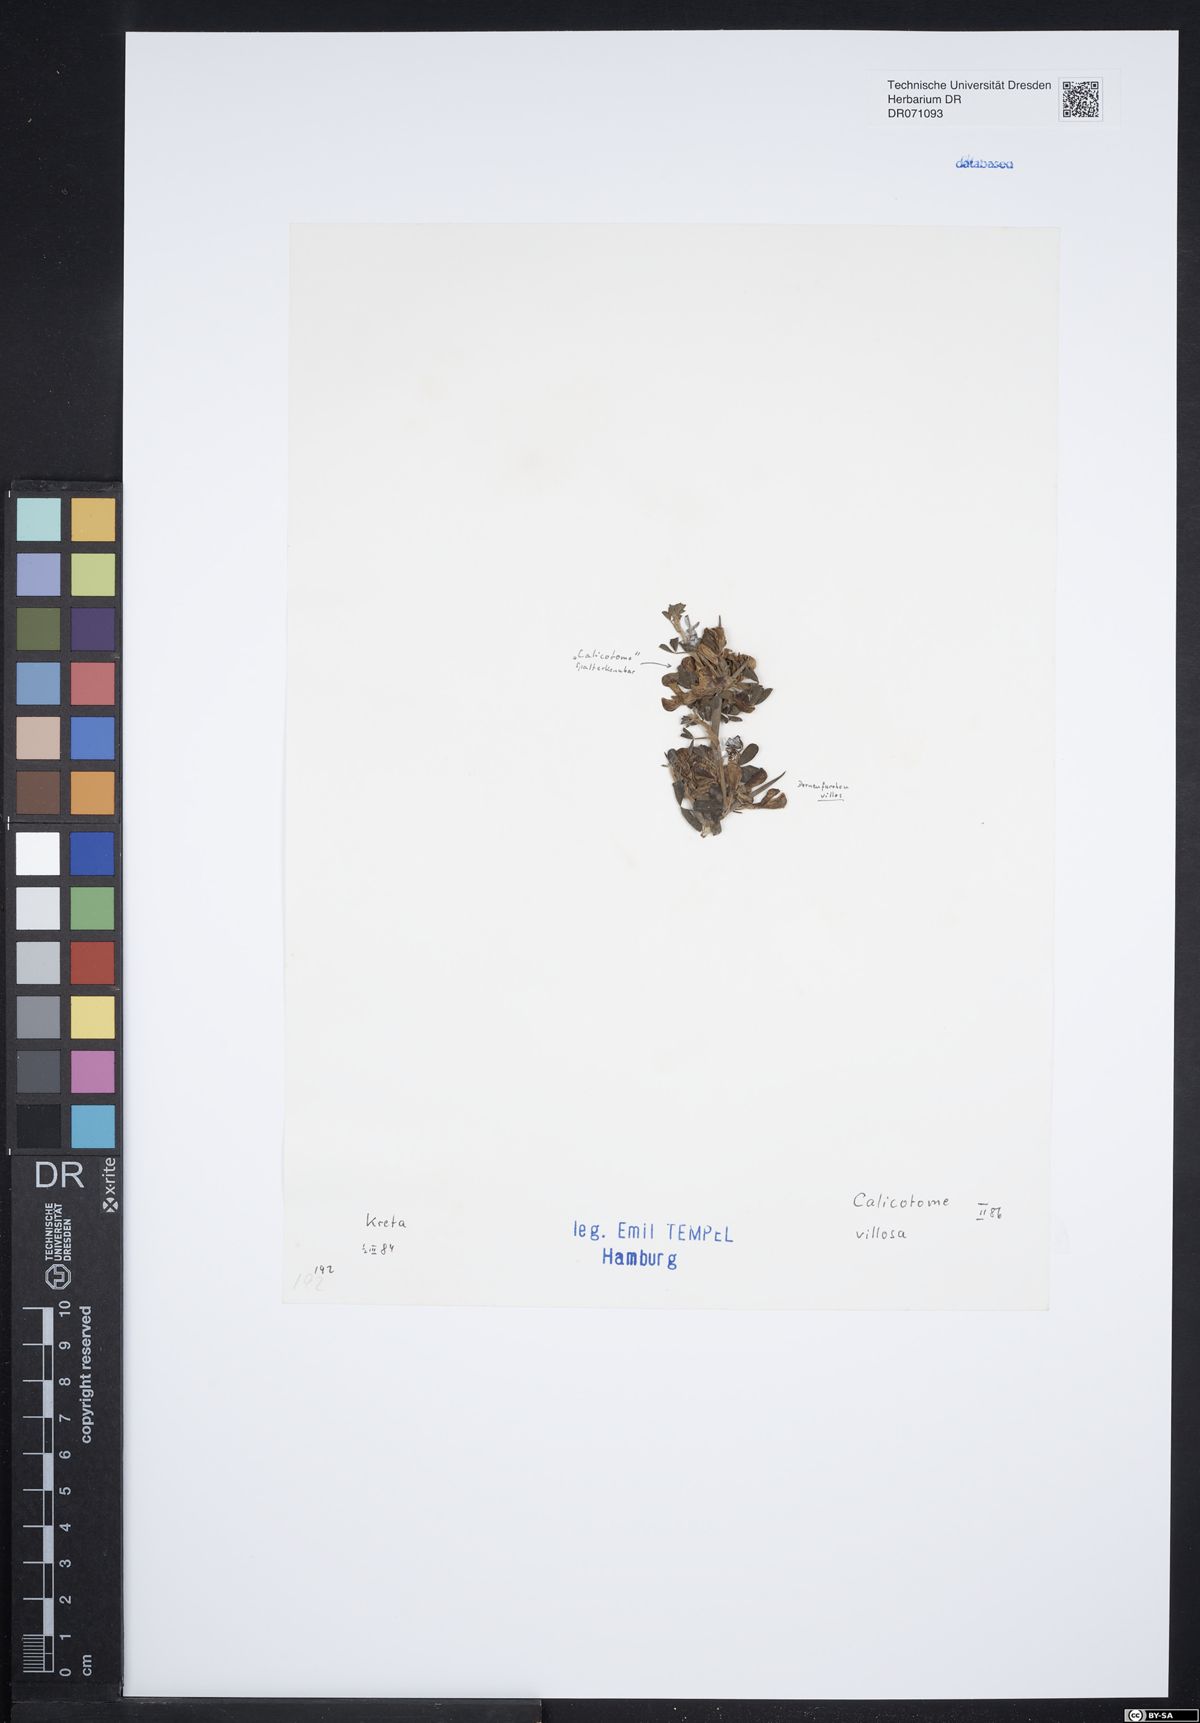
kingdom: Plantae
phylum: Tracheophyta
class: Magnoliopsida
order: Fabales
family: Fabaceae
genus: Calicotome
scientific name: Calicotome villosa
